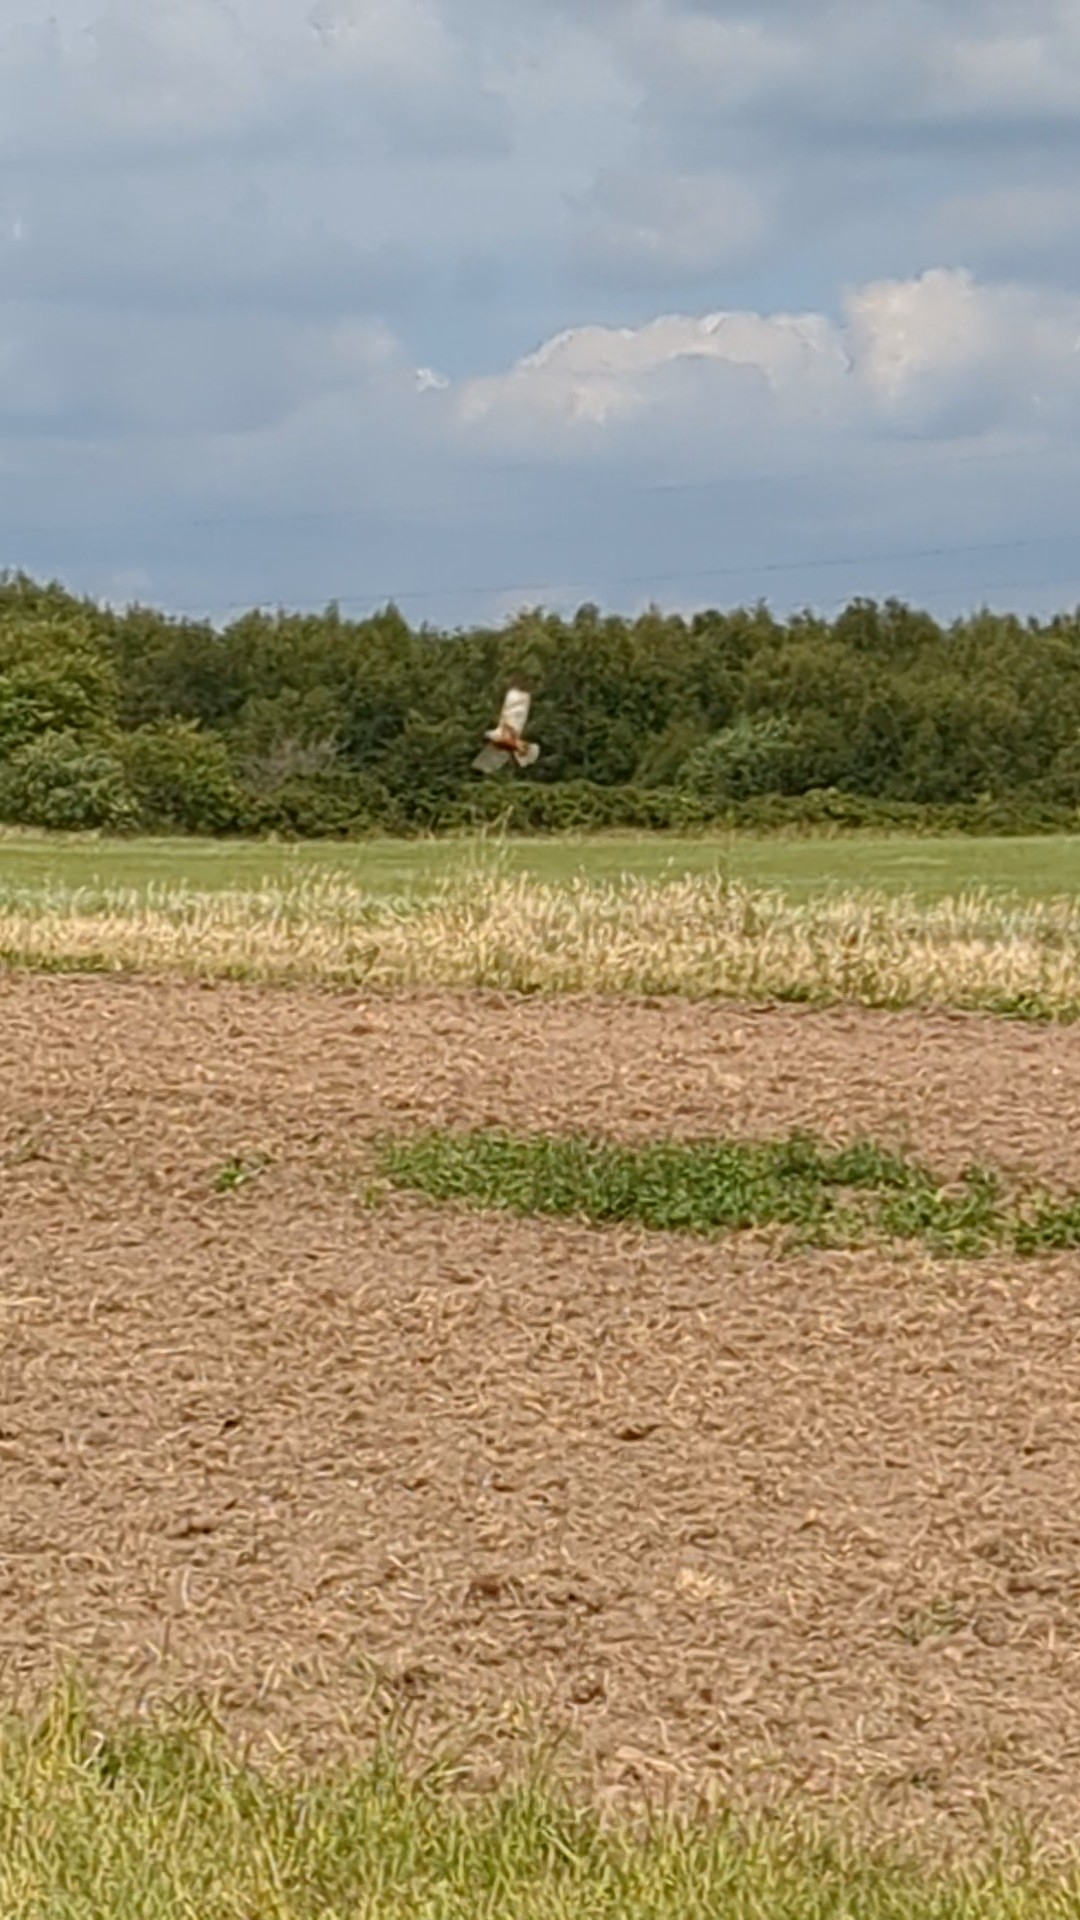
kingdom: Animalia
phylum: Chordata
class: Aves
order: Accipitriformes
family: Accipitridae
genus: Circus
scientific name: Circus aeruginosus
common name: Rørhøg
